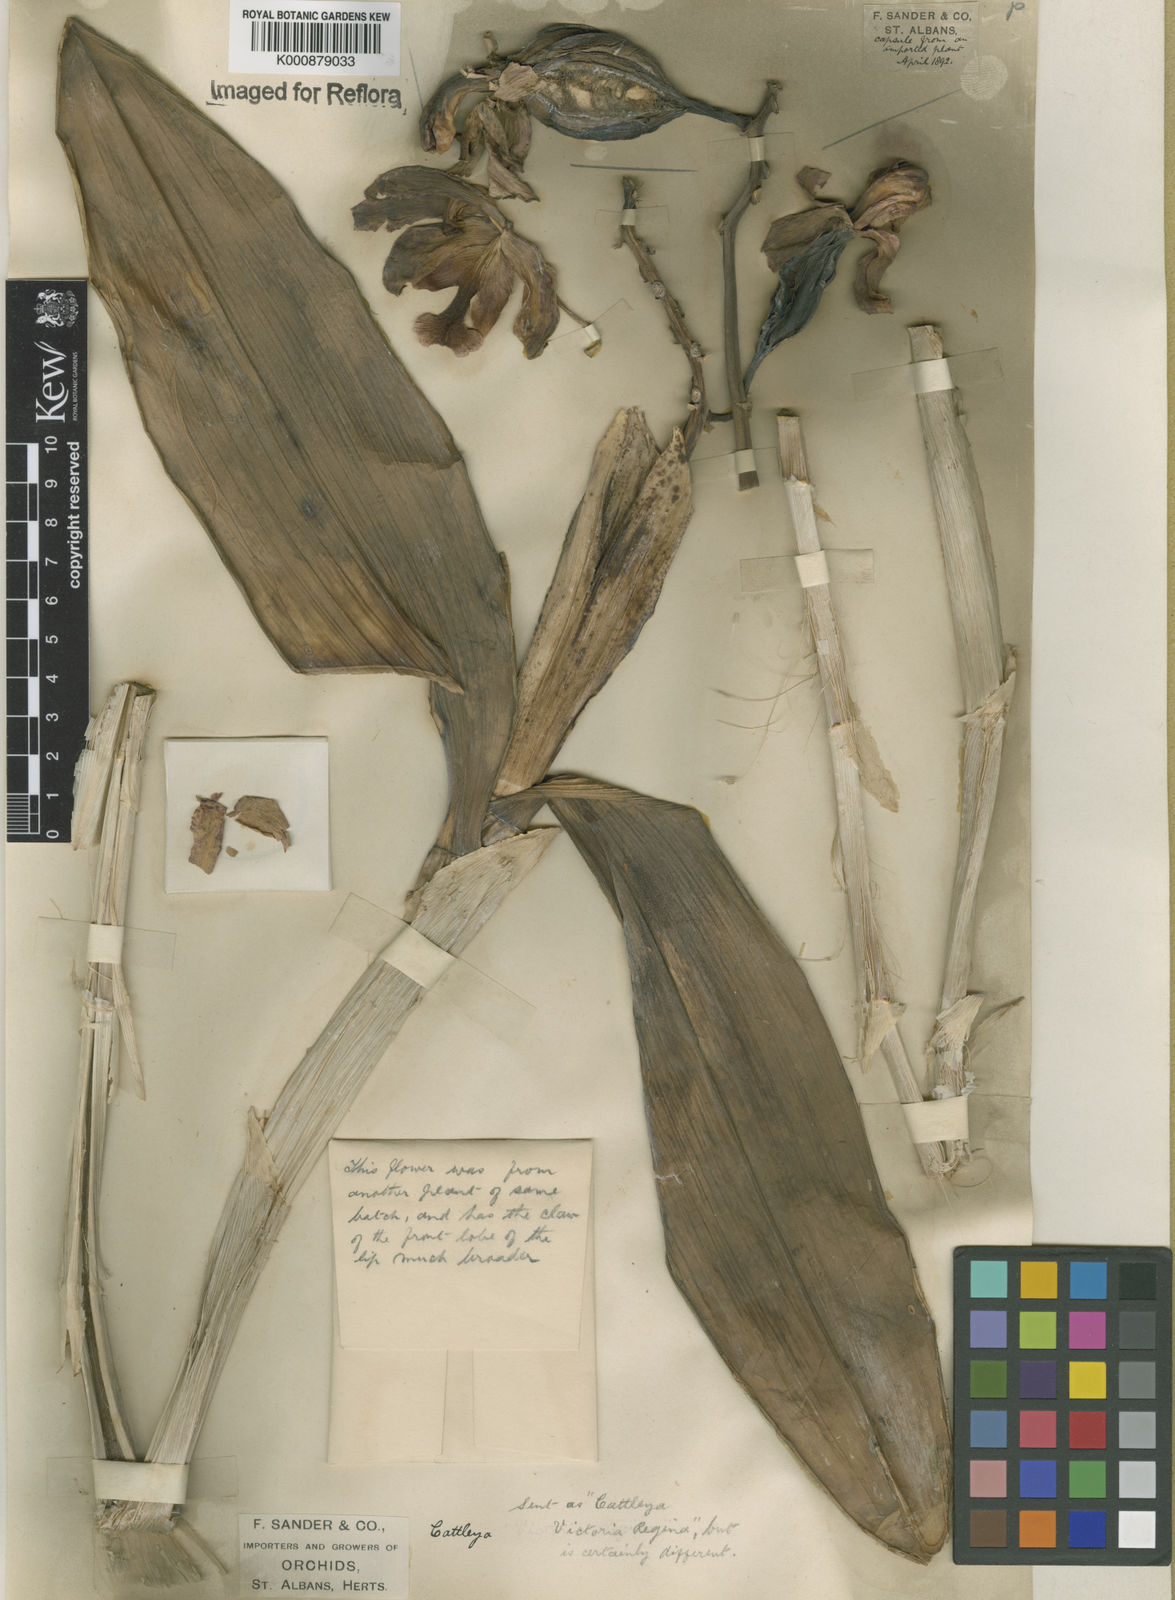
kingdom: Plantae
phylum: Tracheophyta
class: Liliopsida
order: Asparagales
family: Orchidaceae
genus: Cattleya
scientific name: Cattleya
